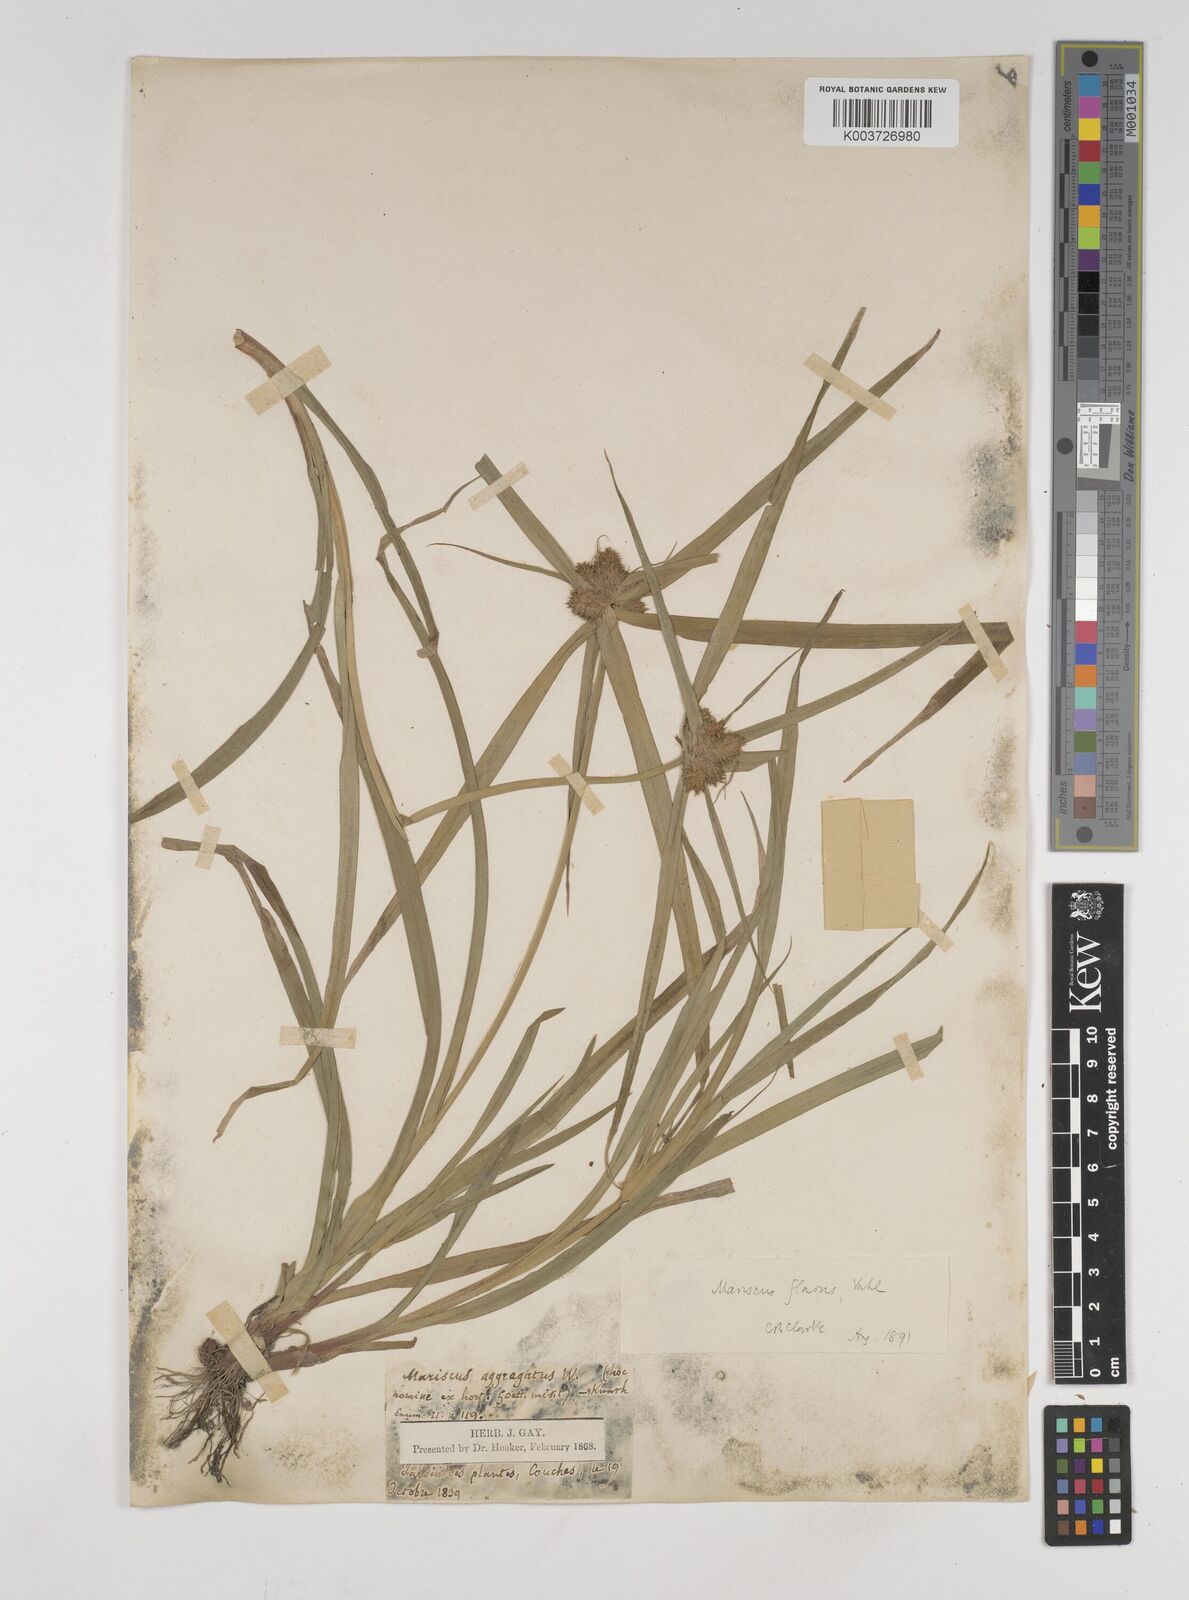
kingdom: Plantae
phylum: Tracheophyta
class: Liliopsida
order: Poales
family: Cyperaceae
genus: Cyperus
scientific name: Cyperus aggregatus
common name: Inflatedscale flatsedge
